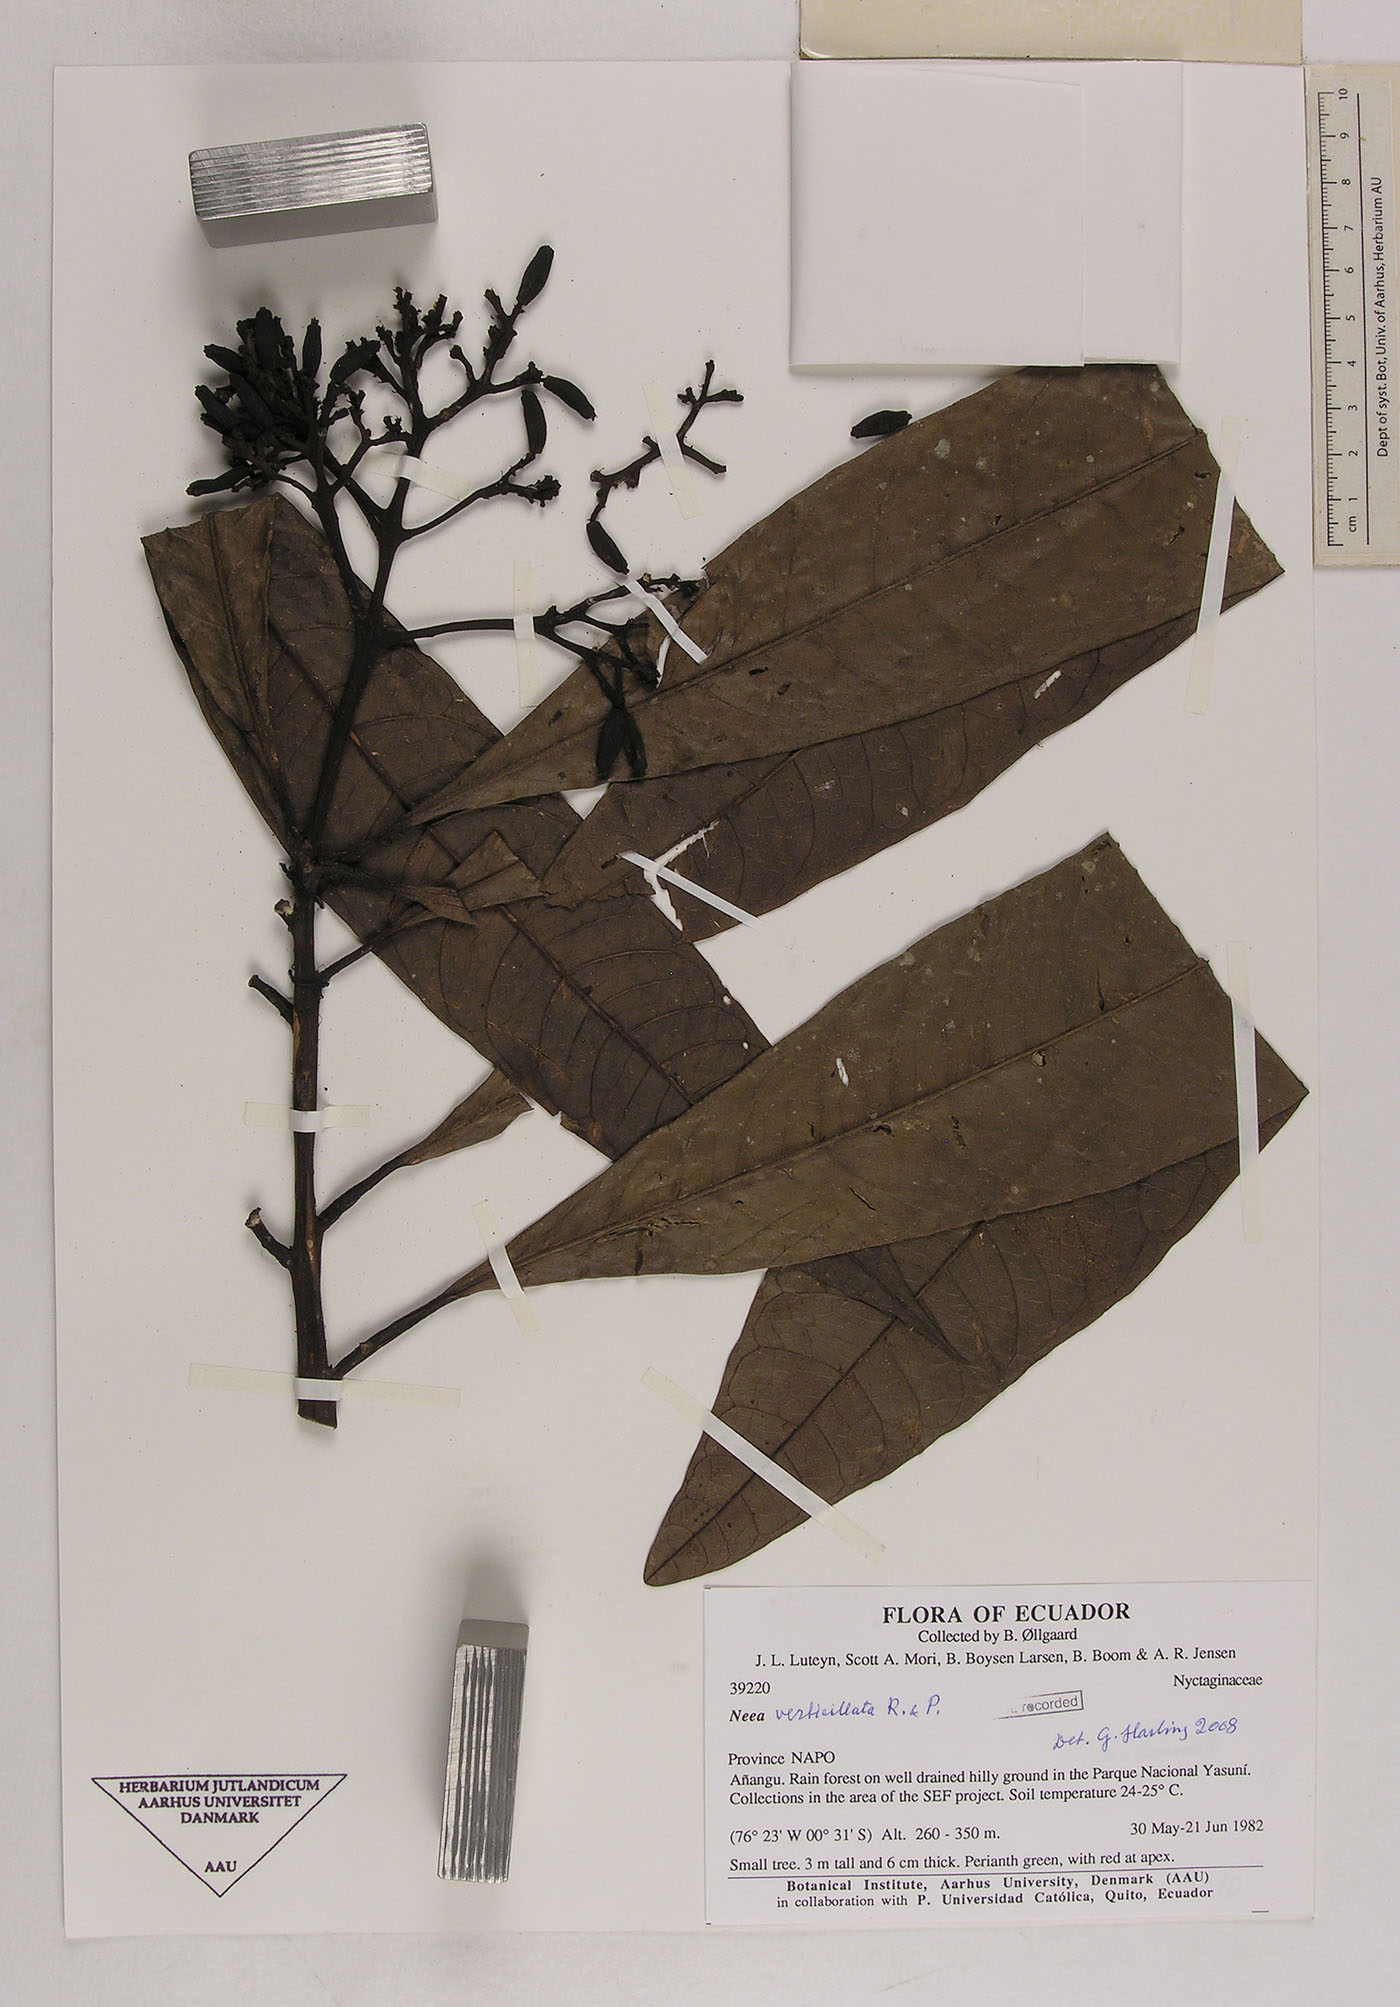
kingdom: Plantae
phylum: Tracheophyta
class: Magnoliopsida
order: Caryophyllales
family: Nyctaginaceae
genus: Neea
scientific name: Neea verticillata
